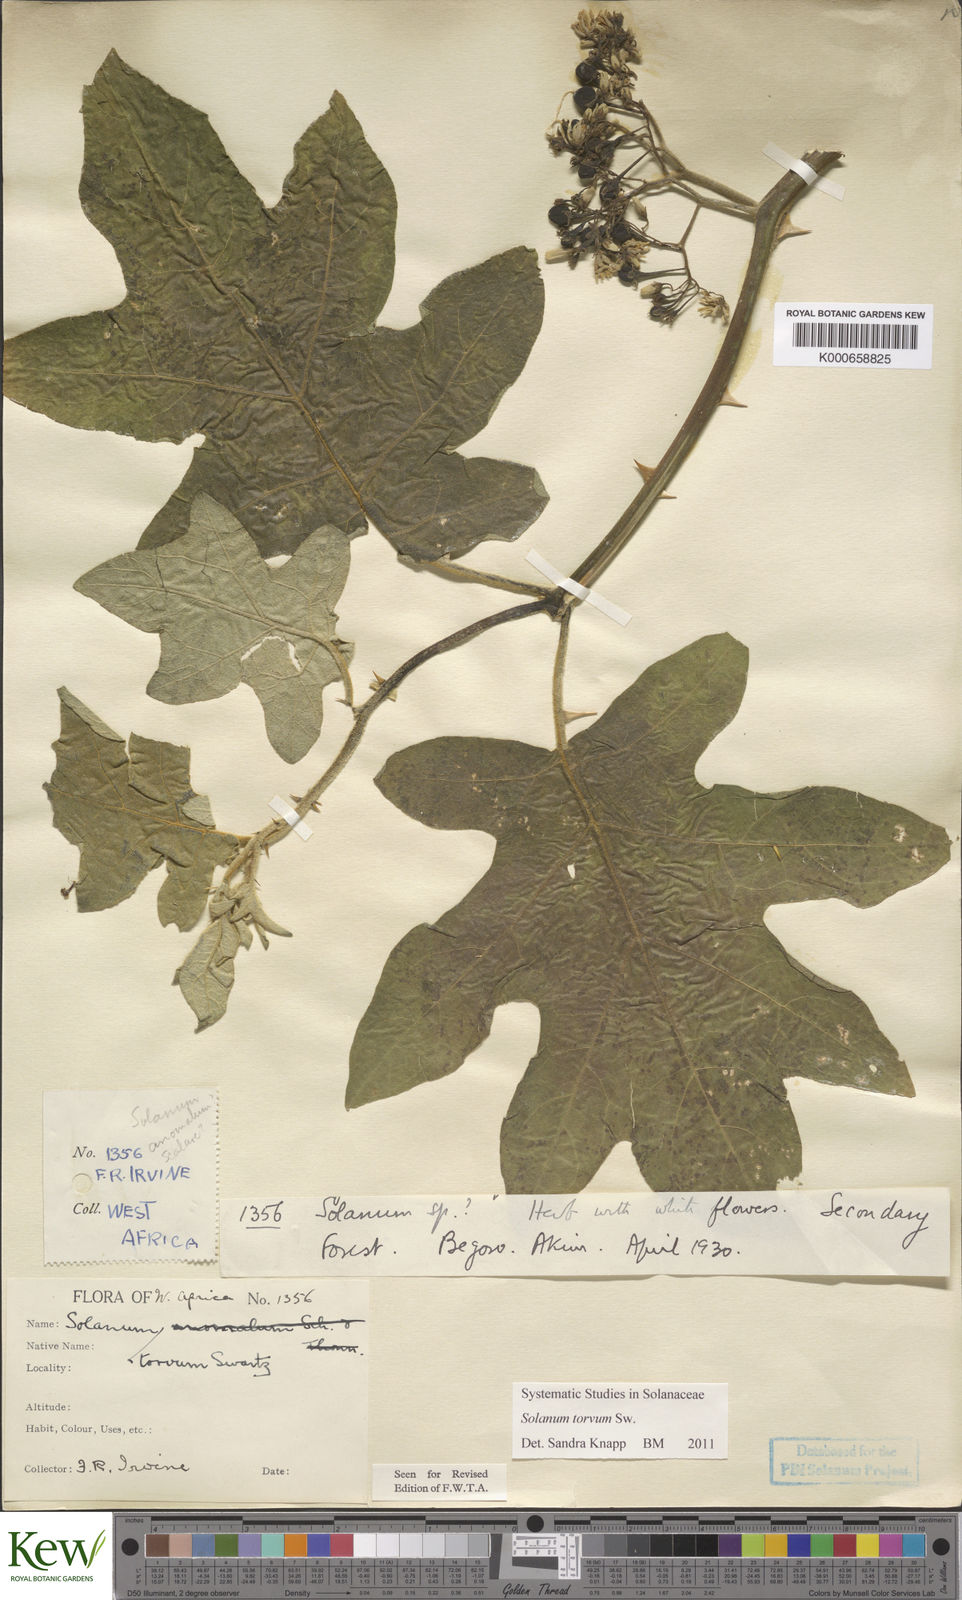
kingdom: Plantae
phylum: Tracheophyta
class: Magnoliopsida
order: Solanales
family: Solanaceae
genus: Solanum
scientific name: Solanum torvum
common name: Turkey berry
